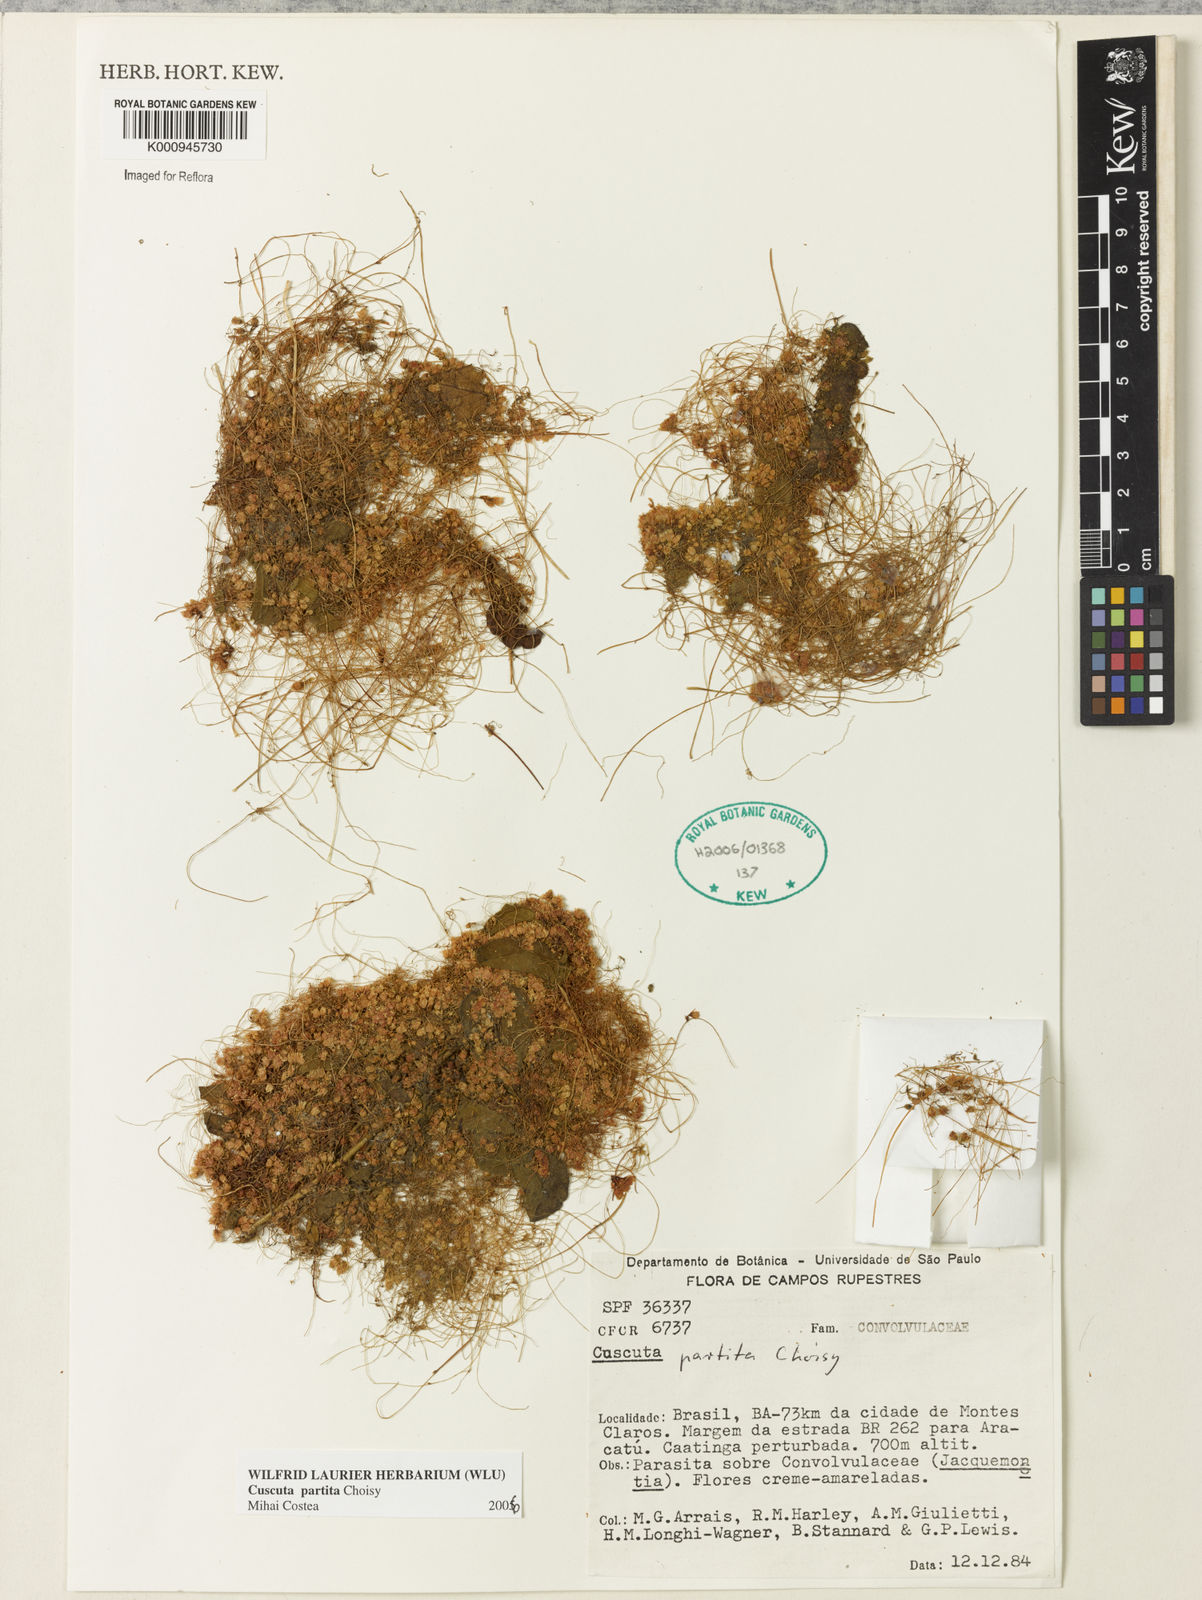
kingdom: Plantae
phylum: Tracheophyta
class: Magnoliopsida
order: Solanales
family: Convolvulaceae
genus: Cuscuta
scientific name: Cuscuta partita
